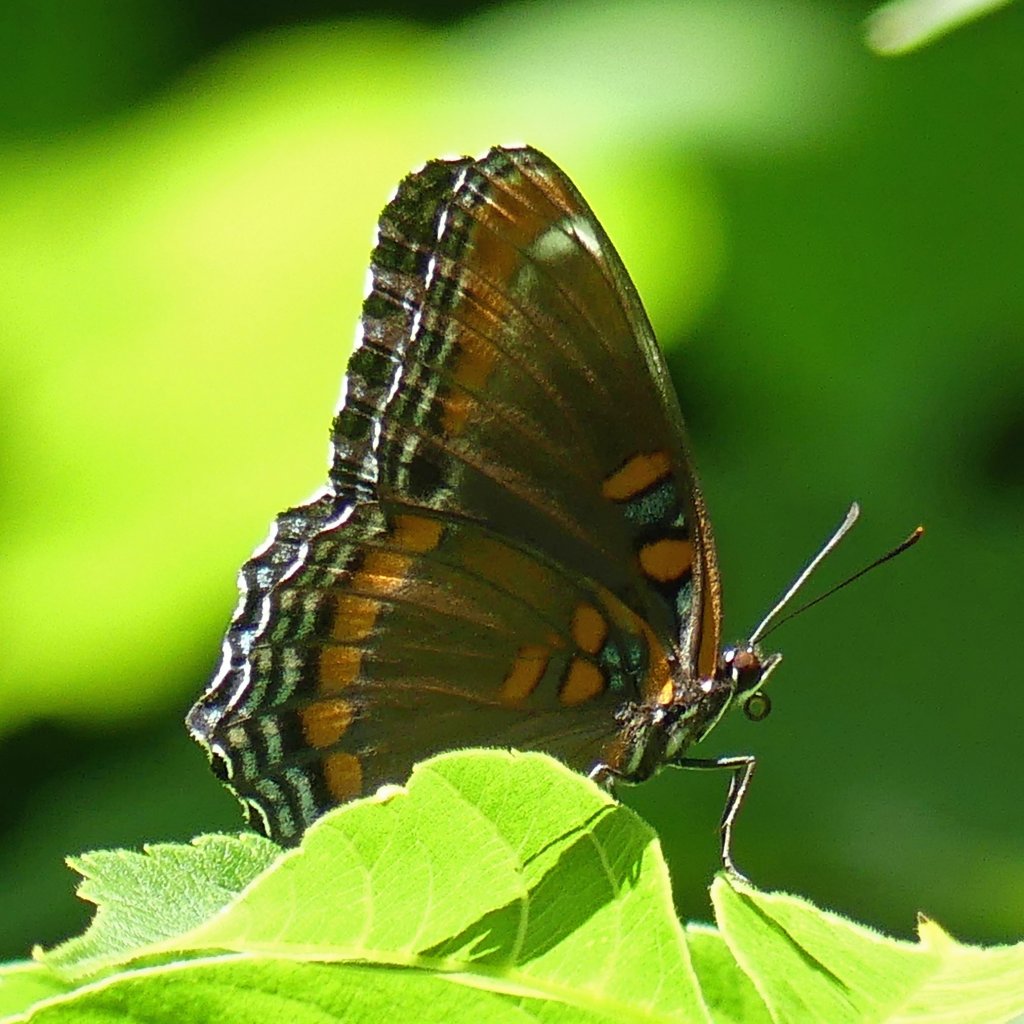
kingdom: Animalia
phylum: Arthropoda
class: Insecta
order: Lepidoptera
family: Nymphalidae
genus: Limenitis
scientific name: Limenitis astyanax
